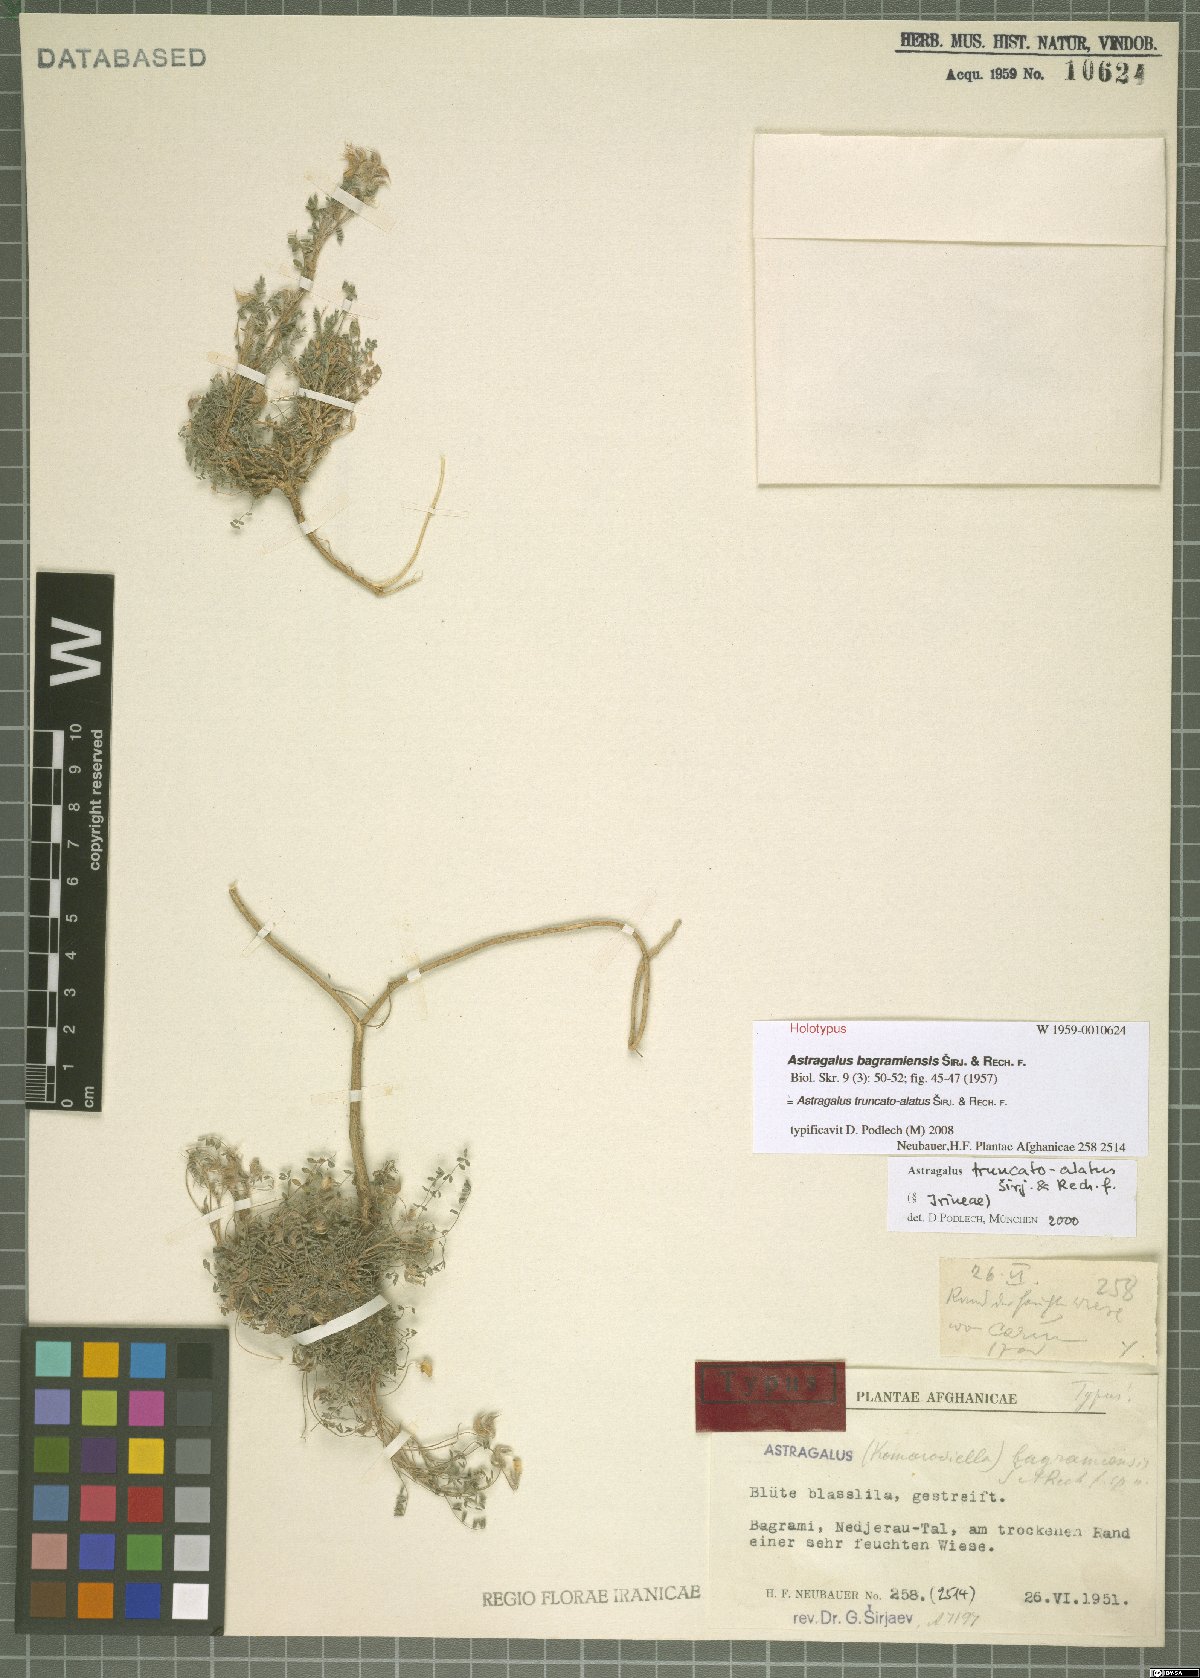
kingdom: Plantae
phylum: Tracheophyta
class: Magnoliopsida
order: Fabales
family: Fabaceae
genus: Astragalus
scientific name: Astragalus truncatoalatus
